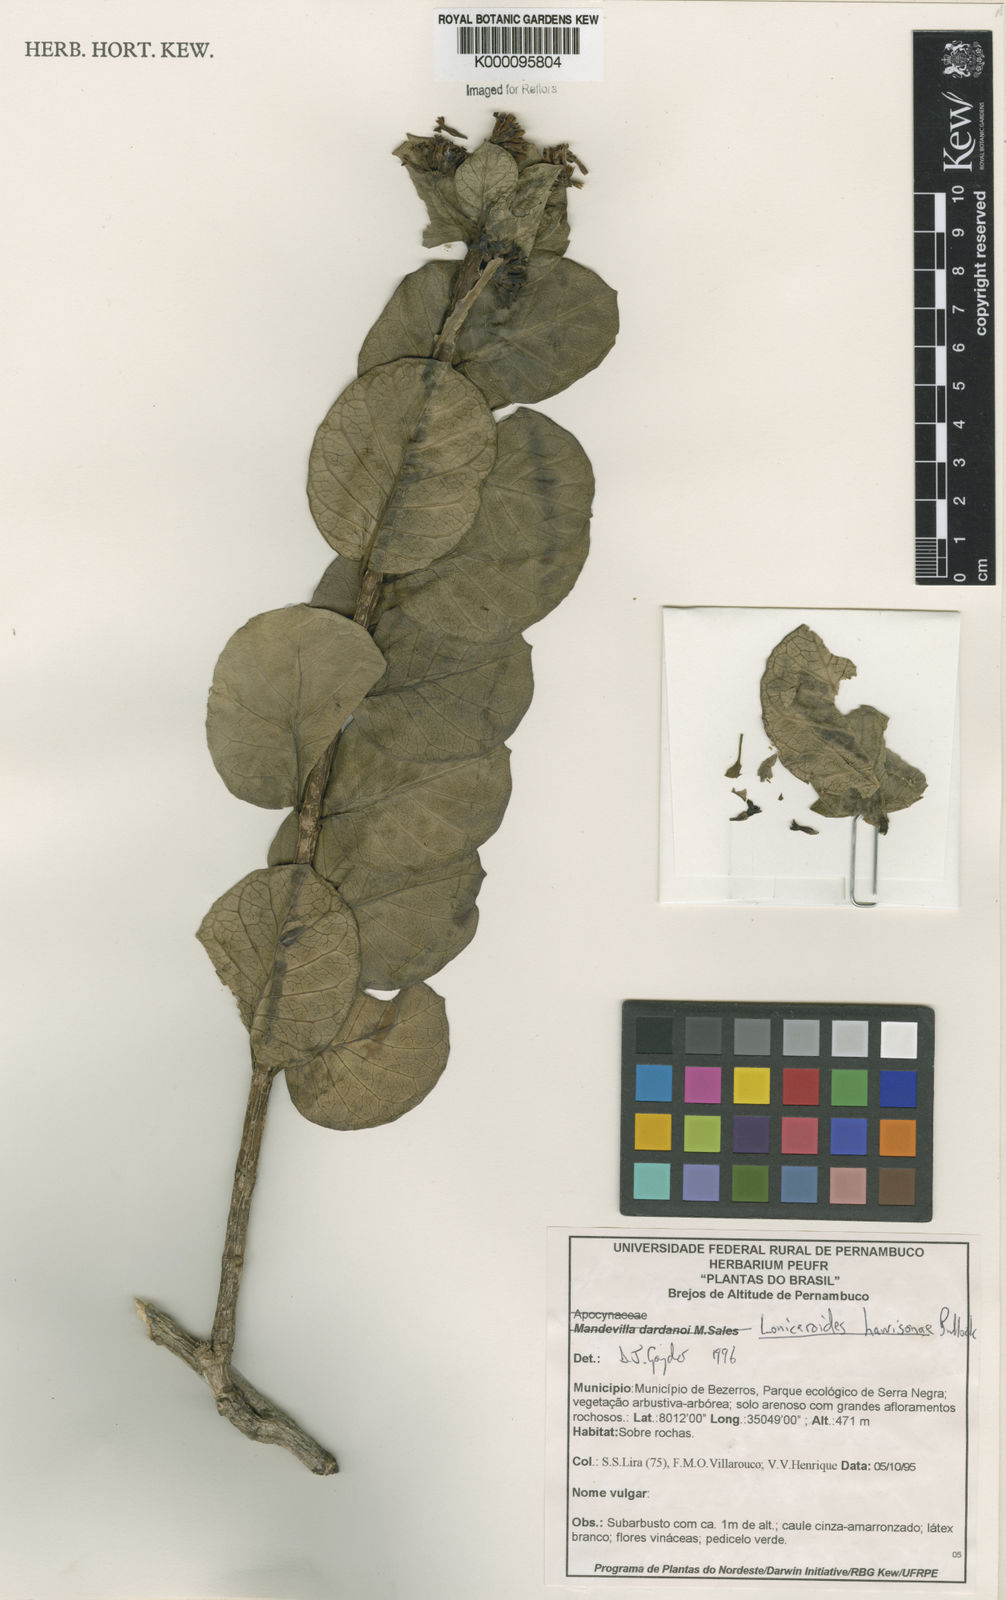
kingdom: Plantae
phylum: Tracheophyta
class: Magnoliopsida
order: Gentianales
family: Apocynaceae
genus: Ruehssia
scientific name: Ruehssia loniceroides
